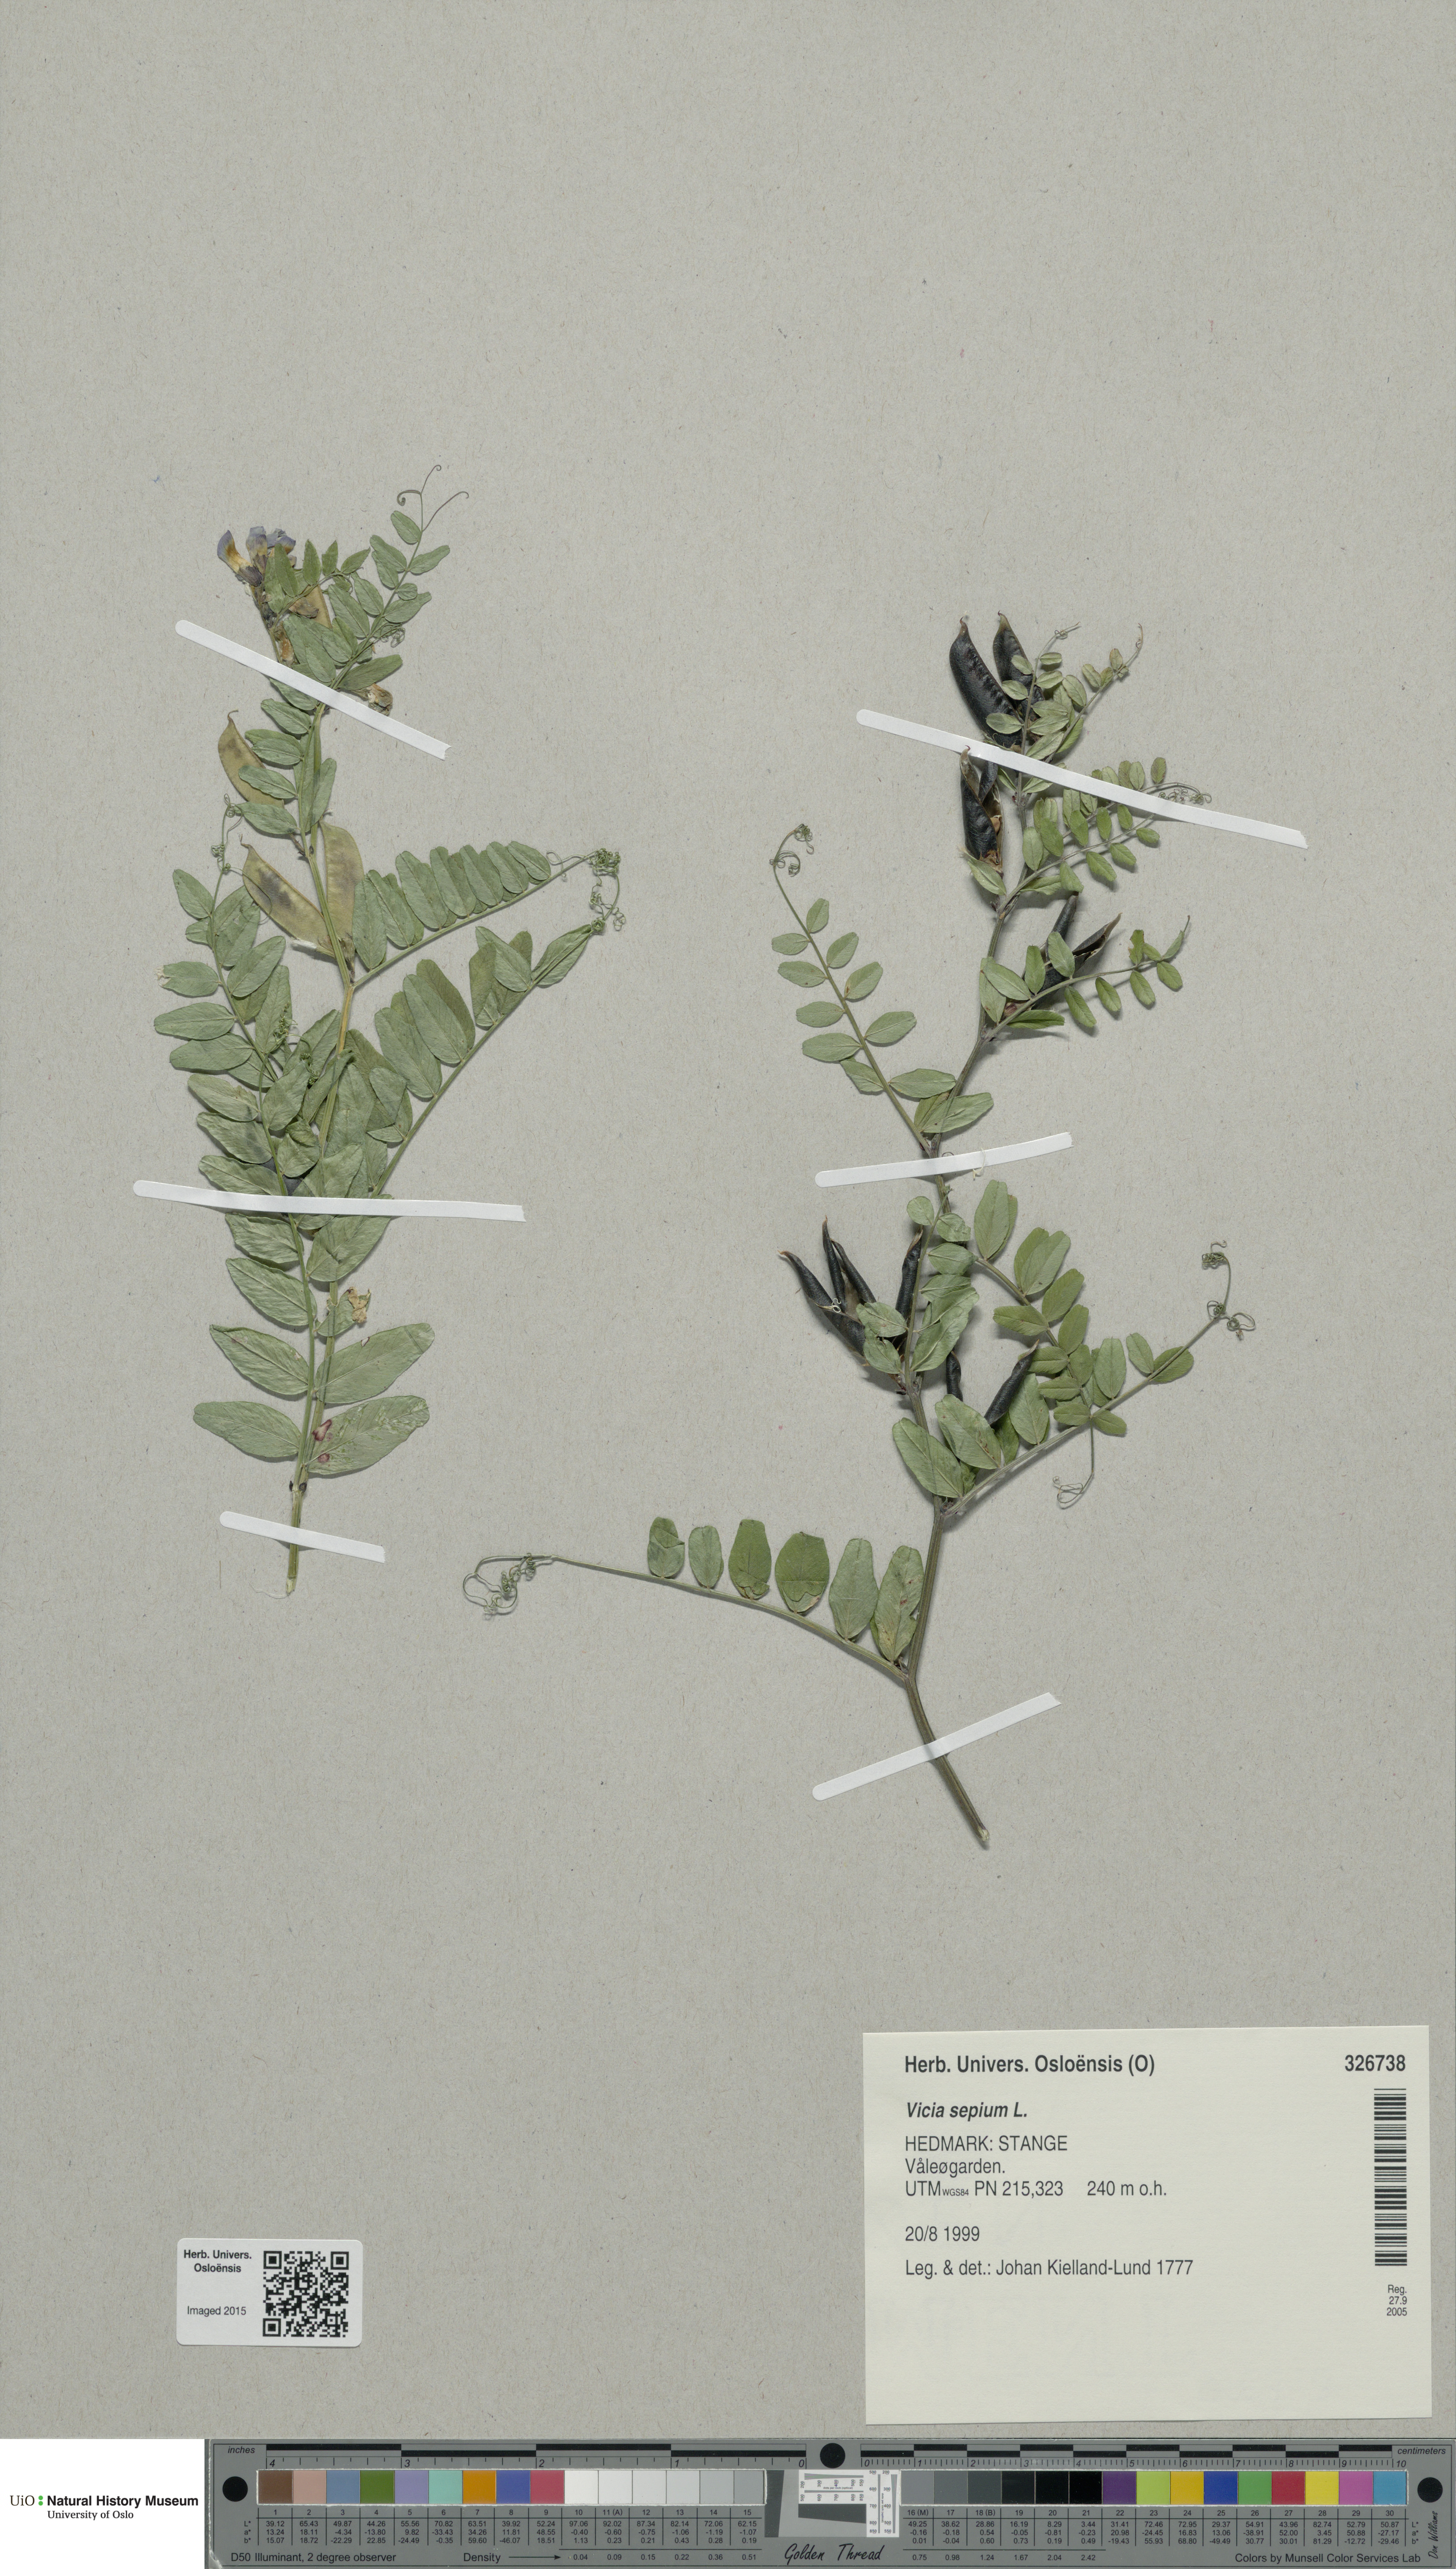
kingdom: Plantae
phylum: Tracheophyta
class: Magnoliopsida
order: Fabales
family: Fabaceae
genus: Vicia
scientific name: Vicia sepium
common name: Bush vetch
